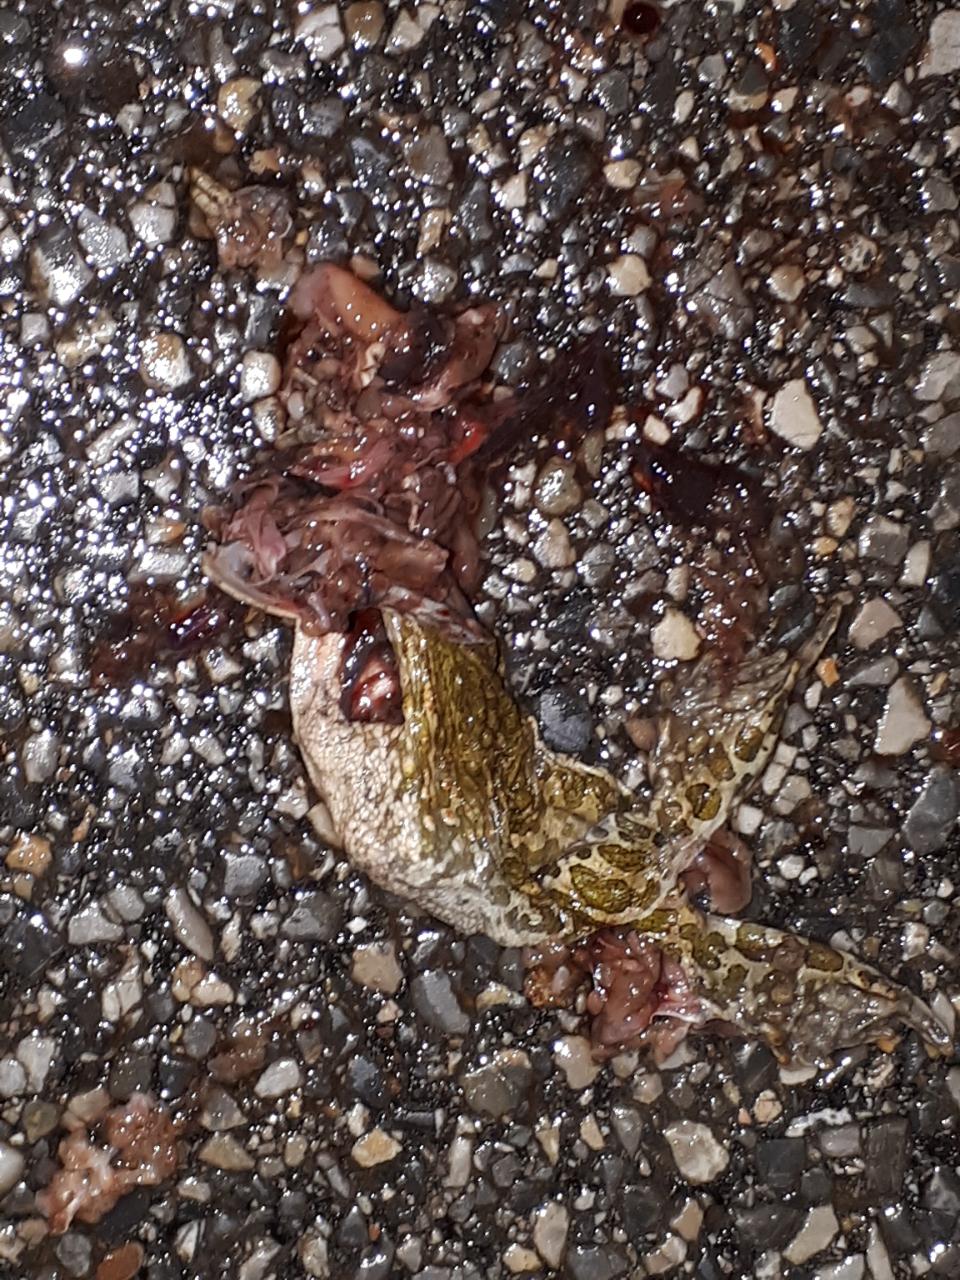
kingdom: Animalia
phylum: Chordata
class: Amphibia
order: Anura
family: Bufonidae
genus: Bufotes
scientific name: Bufotes viridis
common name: European green toad
